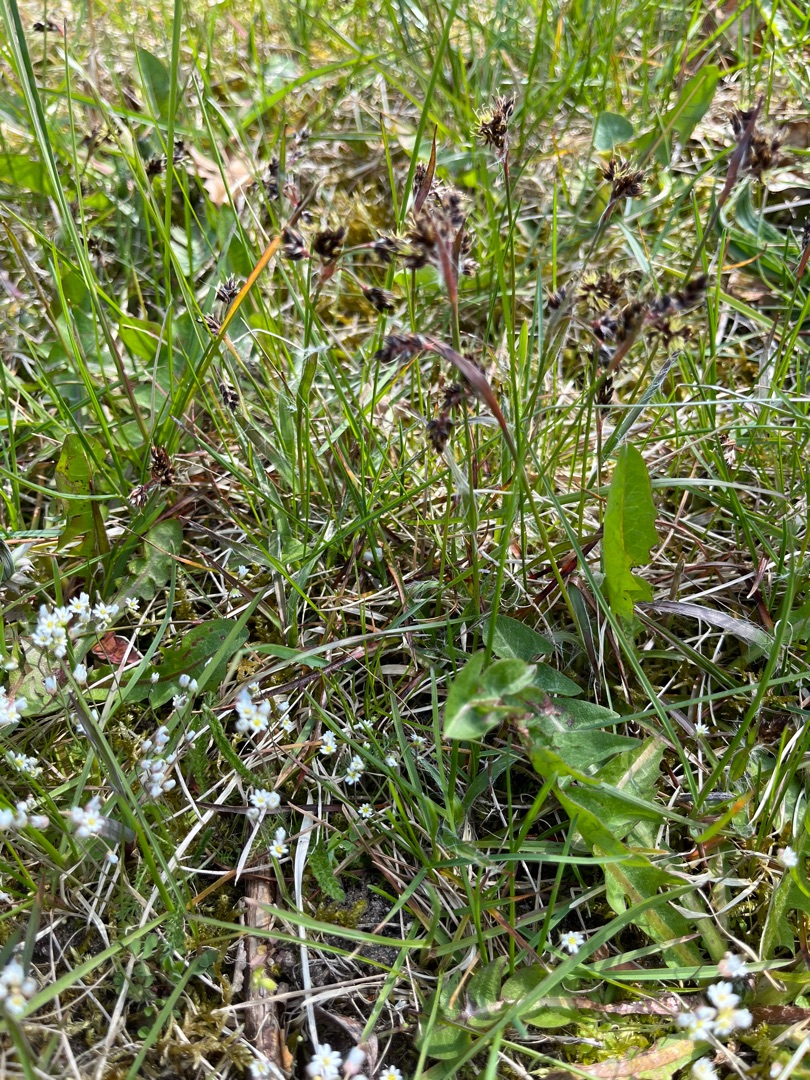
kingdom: Plantae
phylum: Tracheophyta
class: Liliopsida
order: Poales
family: Juncaceae
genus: Luzula
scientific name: Luzula campestris
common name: Mark-frytle
